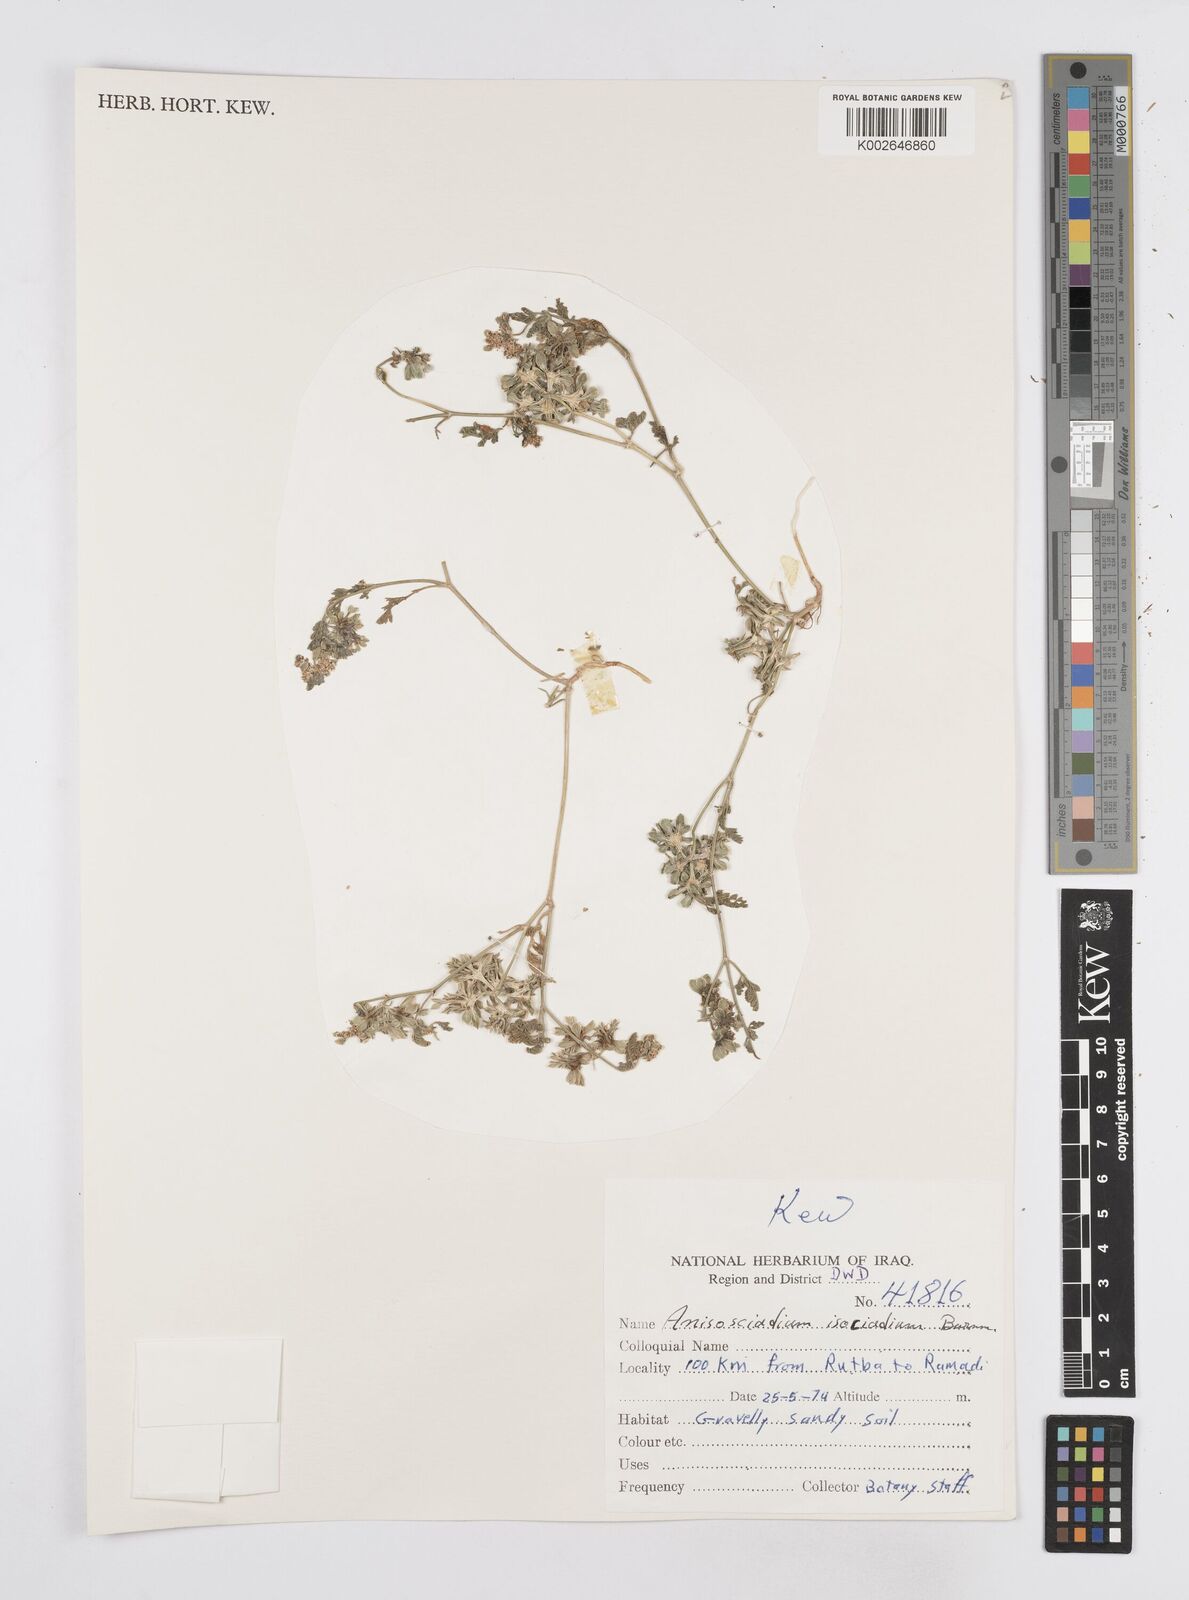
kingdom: Plantae
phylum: Tracheophyta
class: Magnoliopsida
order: Apiales
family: Apiaceae
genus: Anisosciadium
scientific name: Anisosciadium isosciadium
